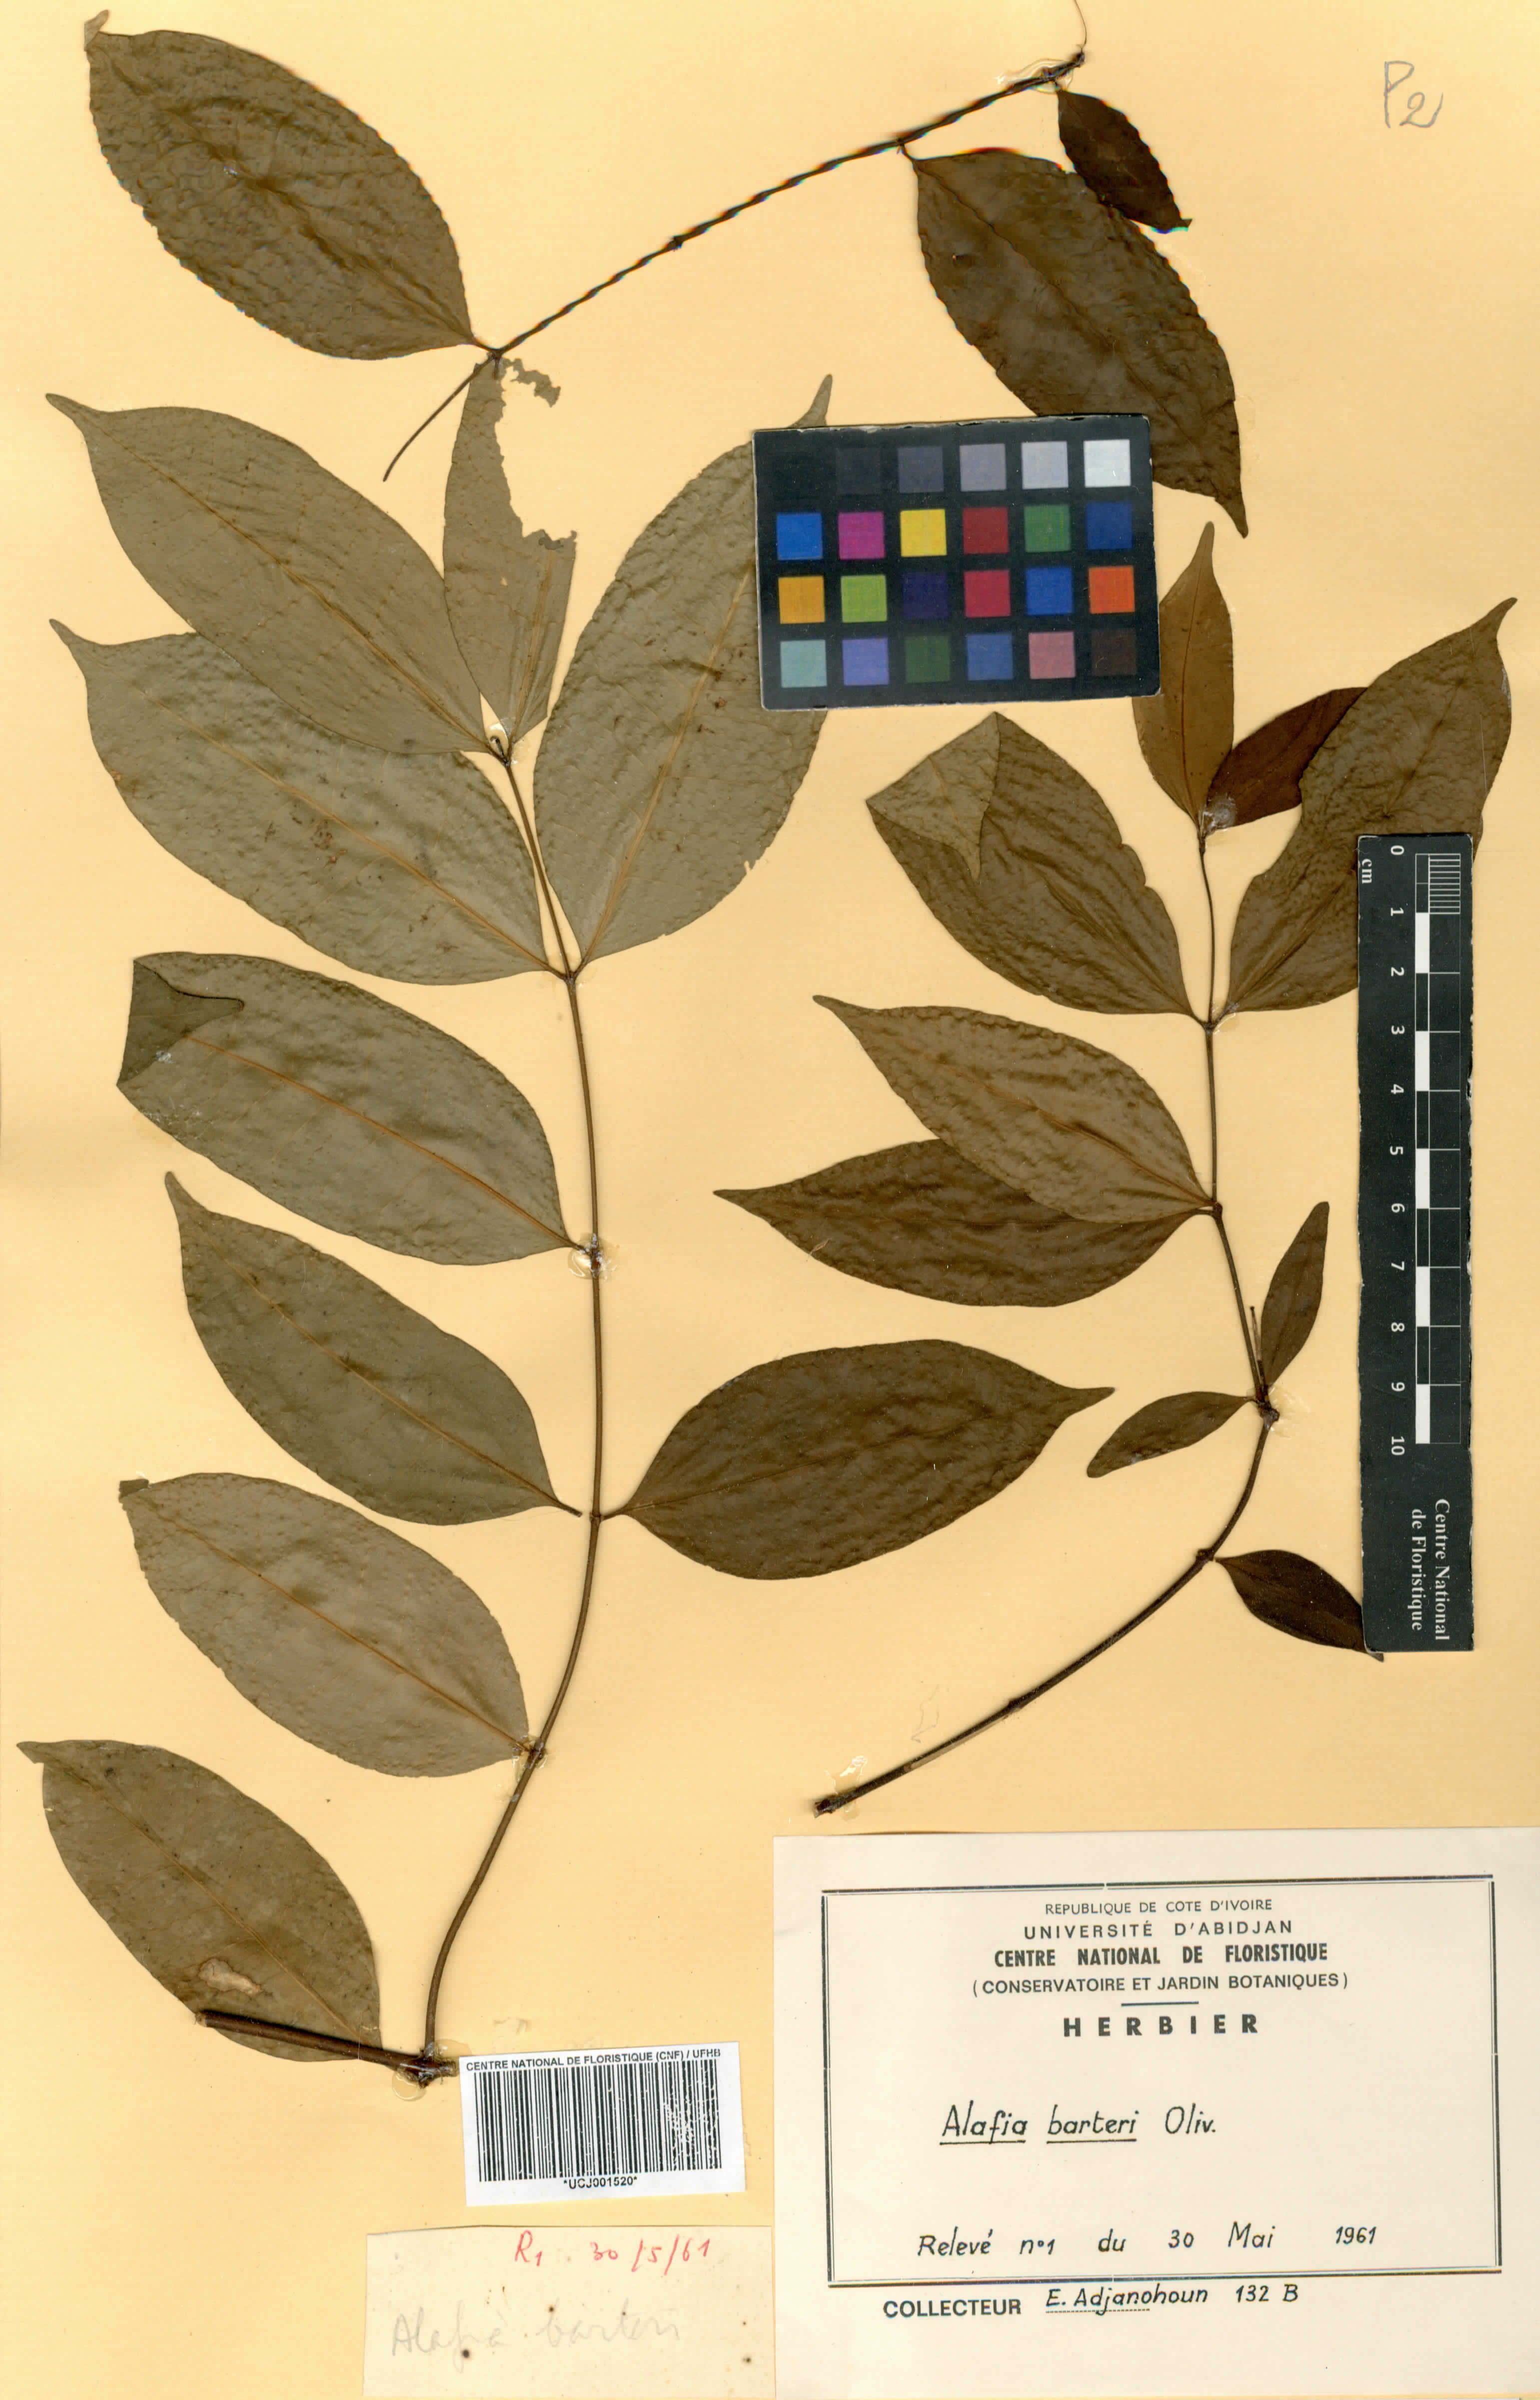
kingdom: Plantae
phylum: Tracheophyta
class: Magnoliopsida
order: Gentianales
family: Apocynaceae
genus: Alafia
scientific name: Alafia barteri
